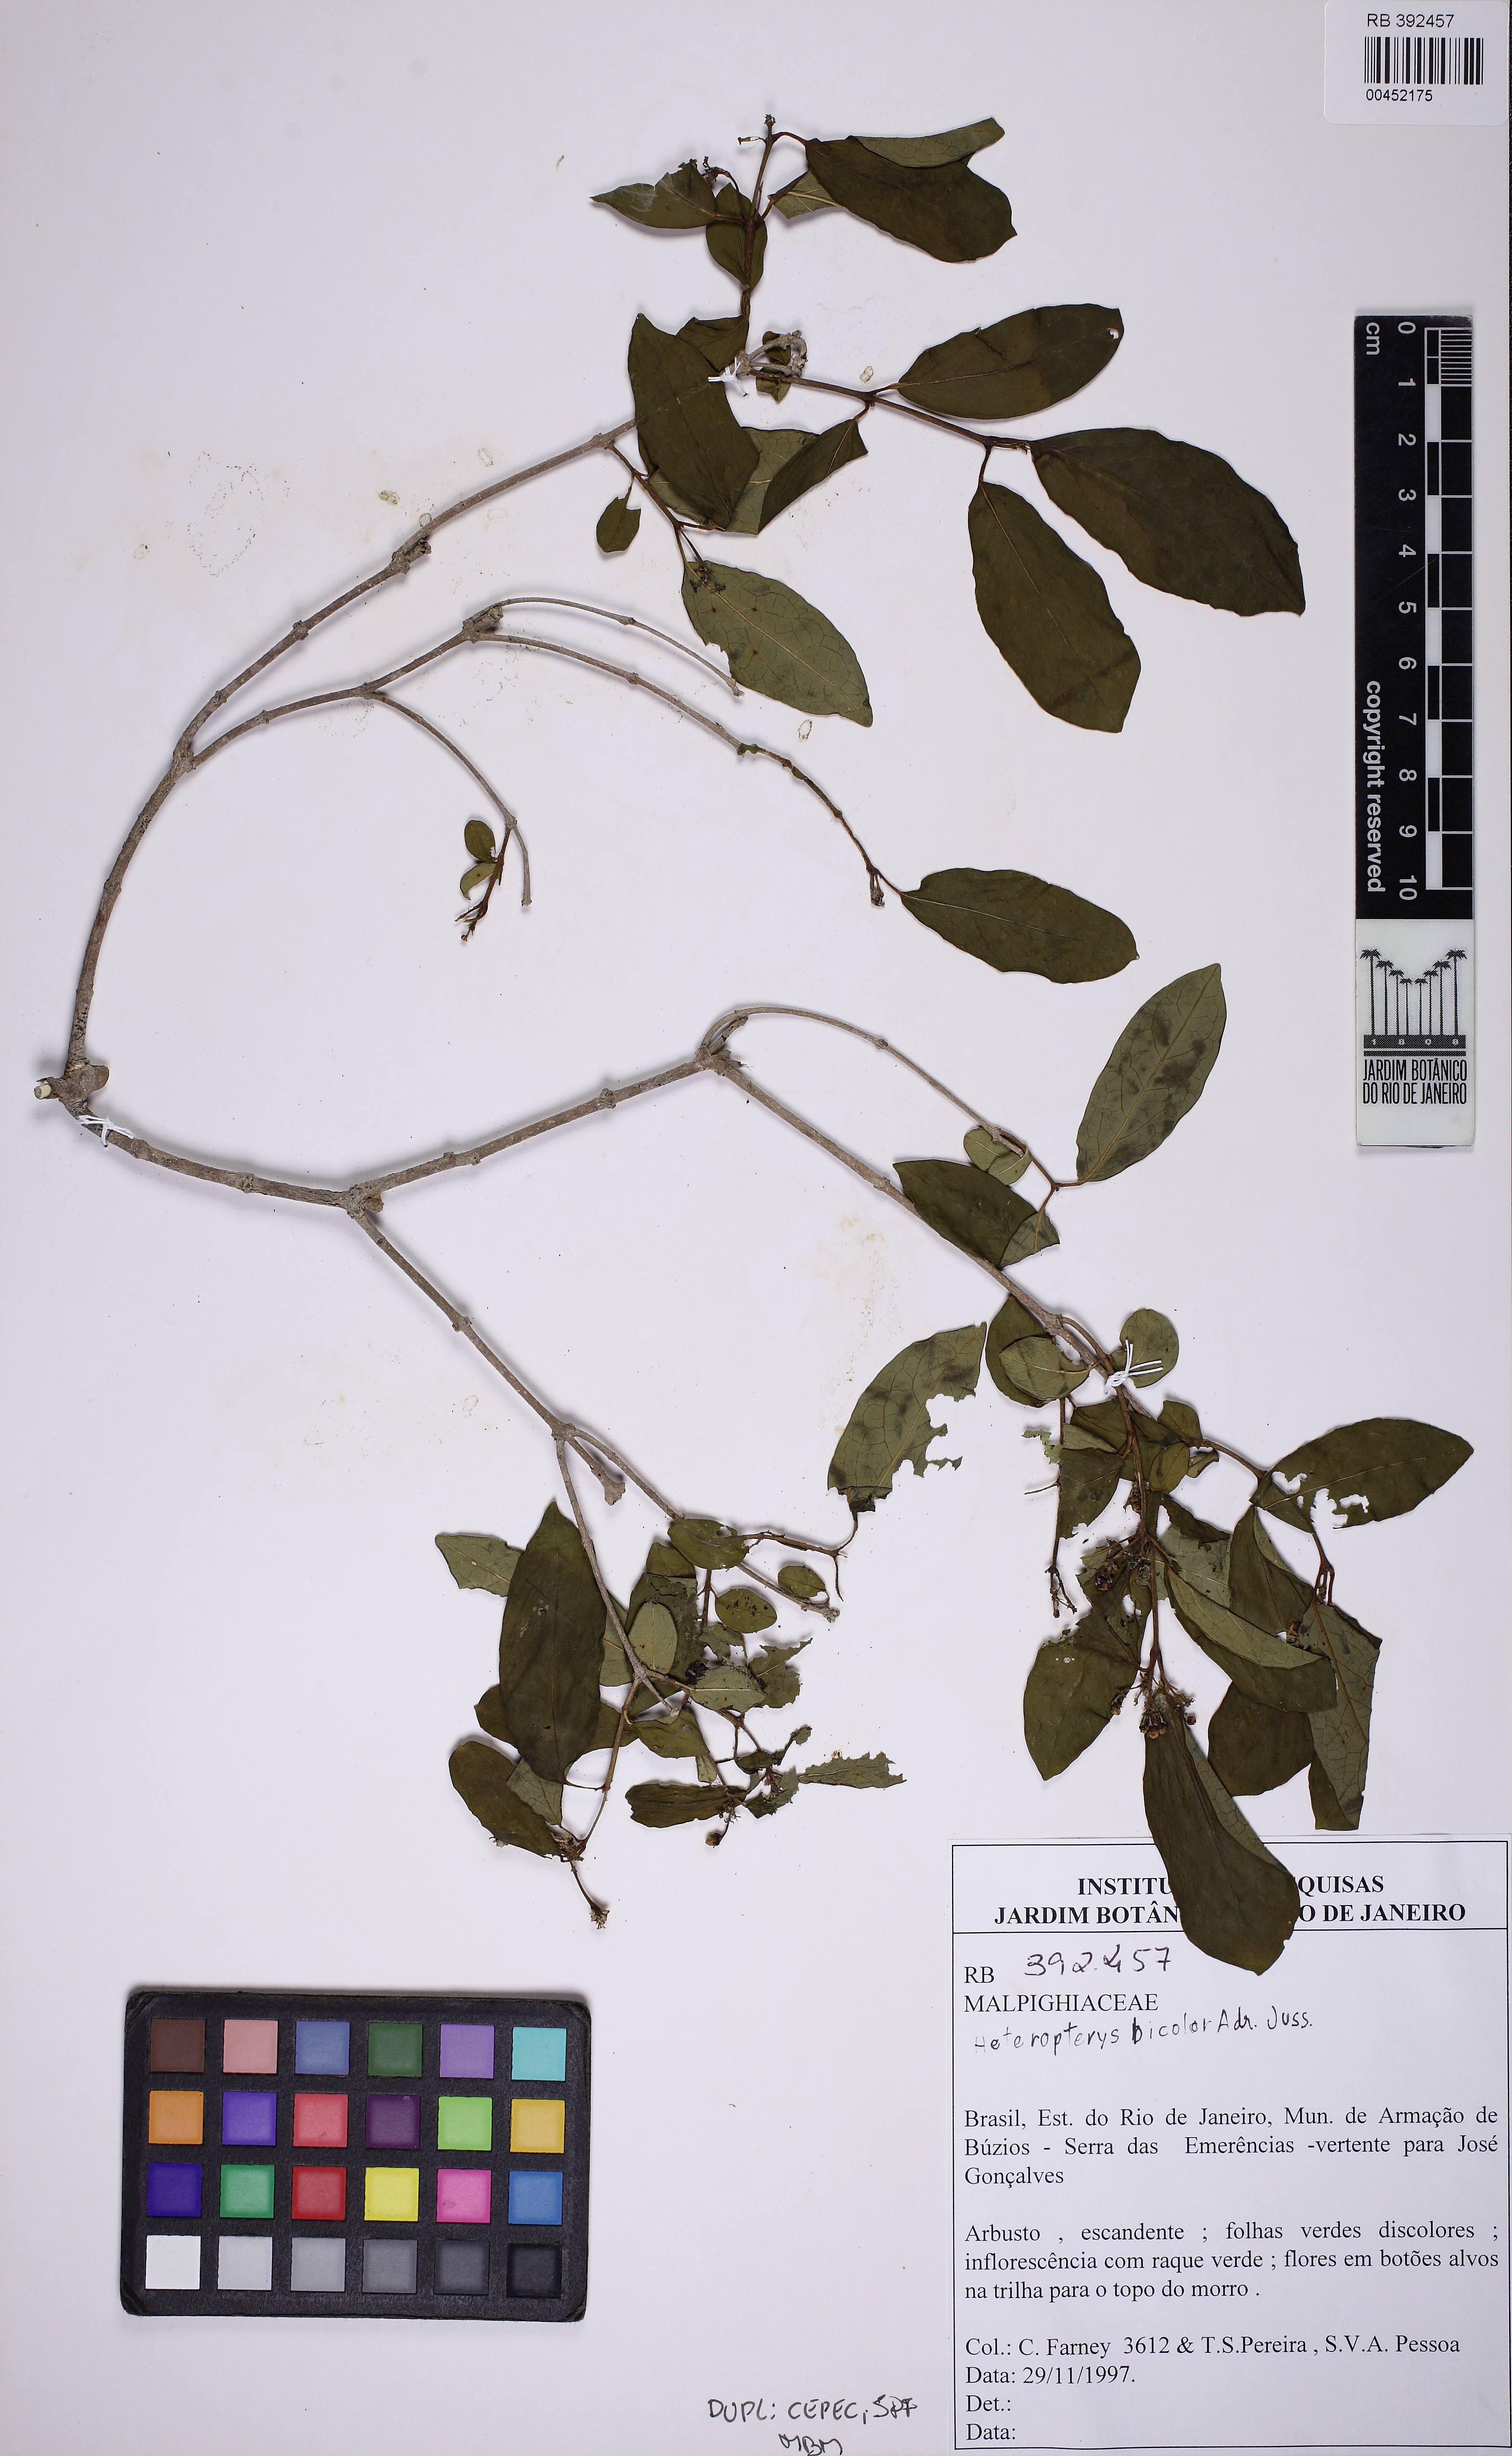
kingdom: Plantae
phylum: Tracheophyta
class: Magnoliopsida
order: Malpighiales
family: Malpighiaceae
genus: Heteropterys
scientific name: Heteropterys bicolor
